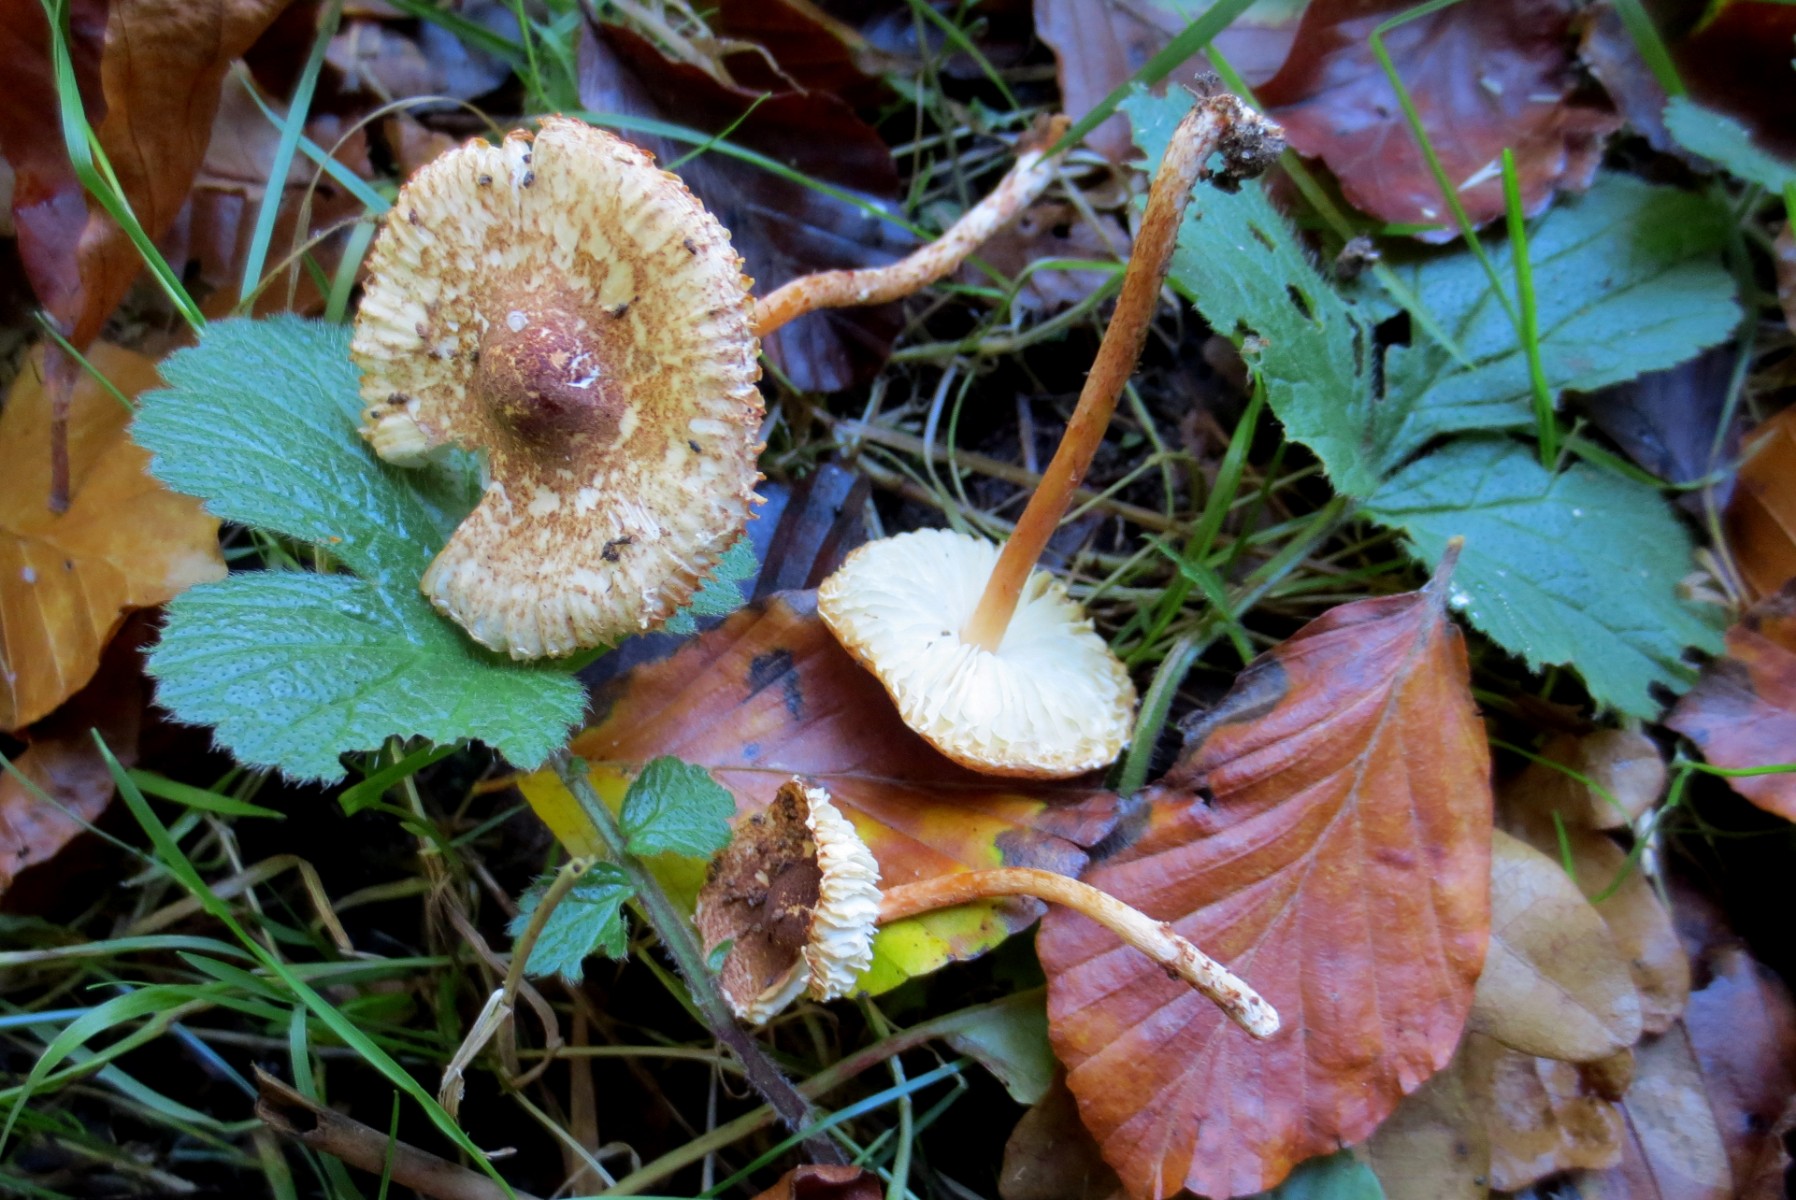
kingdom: Fungi
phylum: Basidiomycota
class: Agaricomycetes
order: Agaricales
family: Agaricaceae
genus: Lepiota
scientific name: Lepiota castanea
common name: kastaniebrun parasolhat
